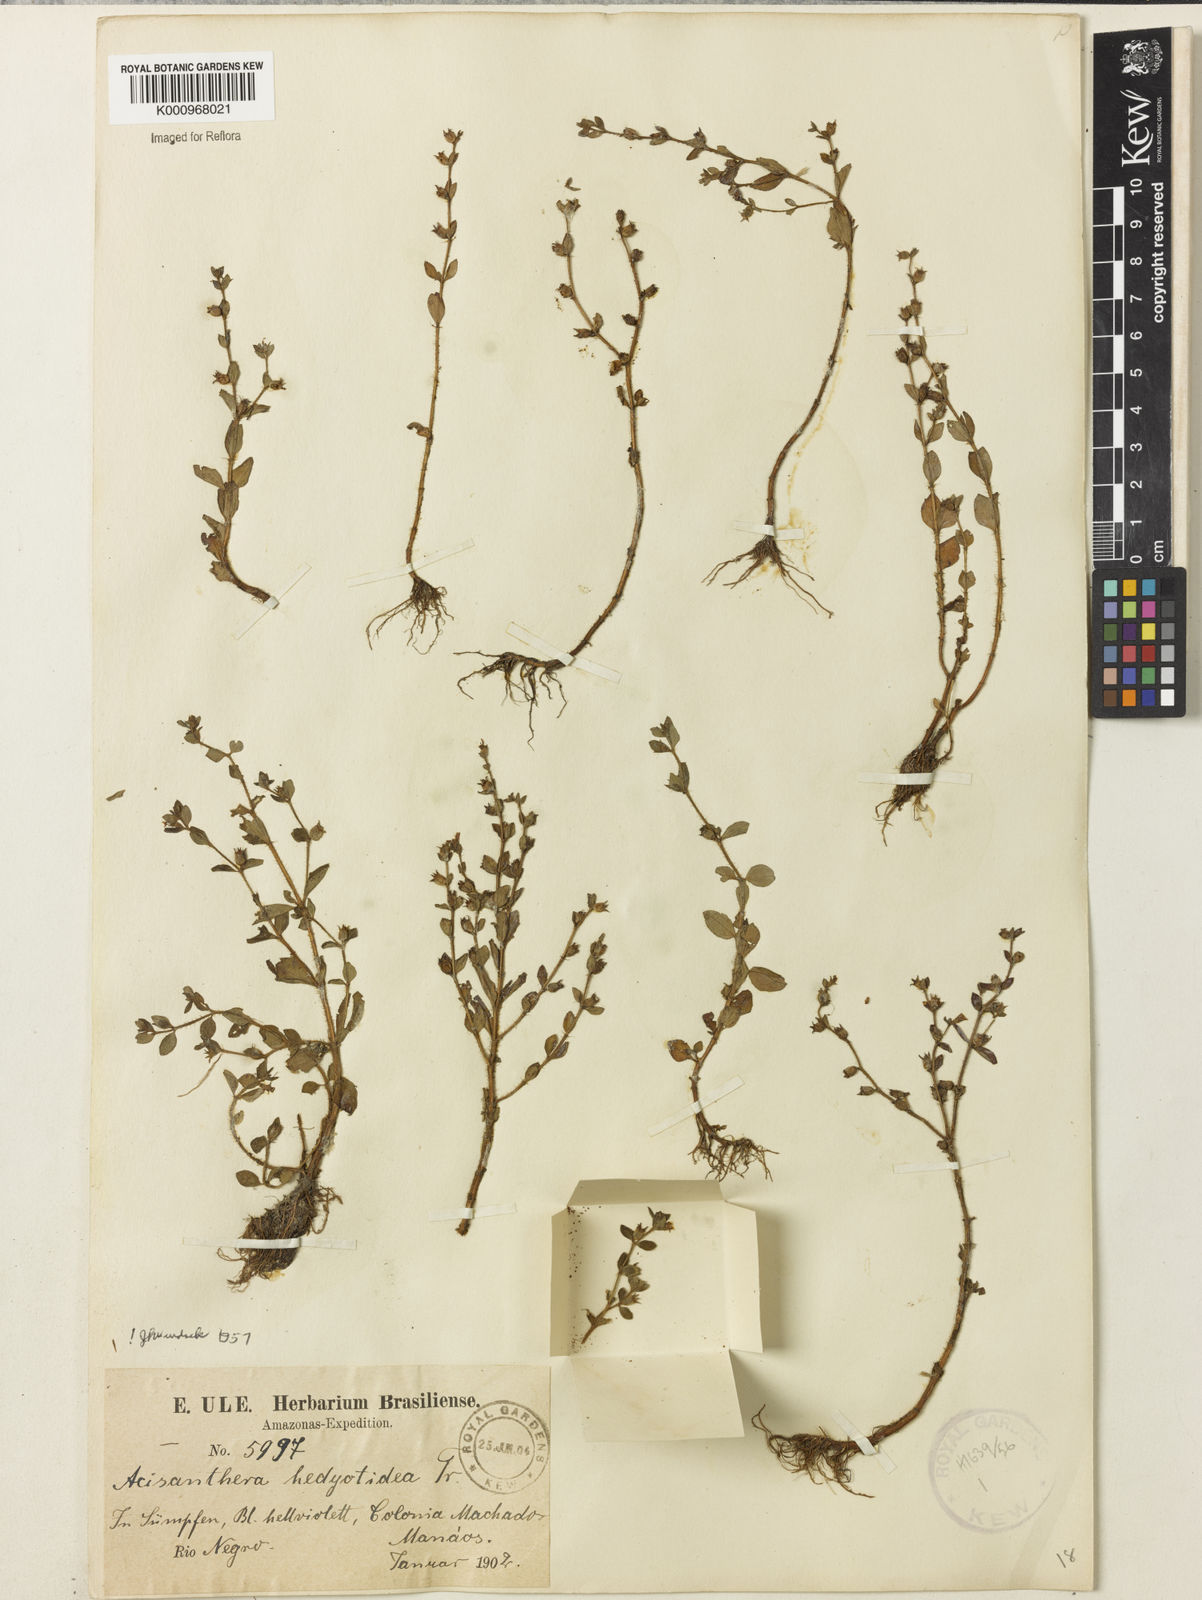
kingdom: Plantae
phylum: Tracheophyta
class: Magnoliopsida
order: Myrtales
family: Melastomataceae
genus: Acisanthera
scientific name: Acisanthera hedyotoidea
